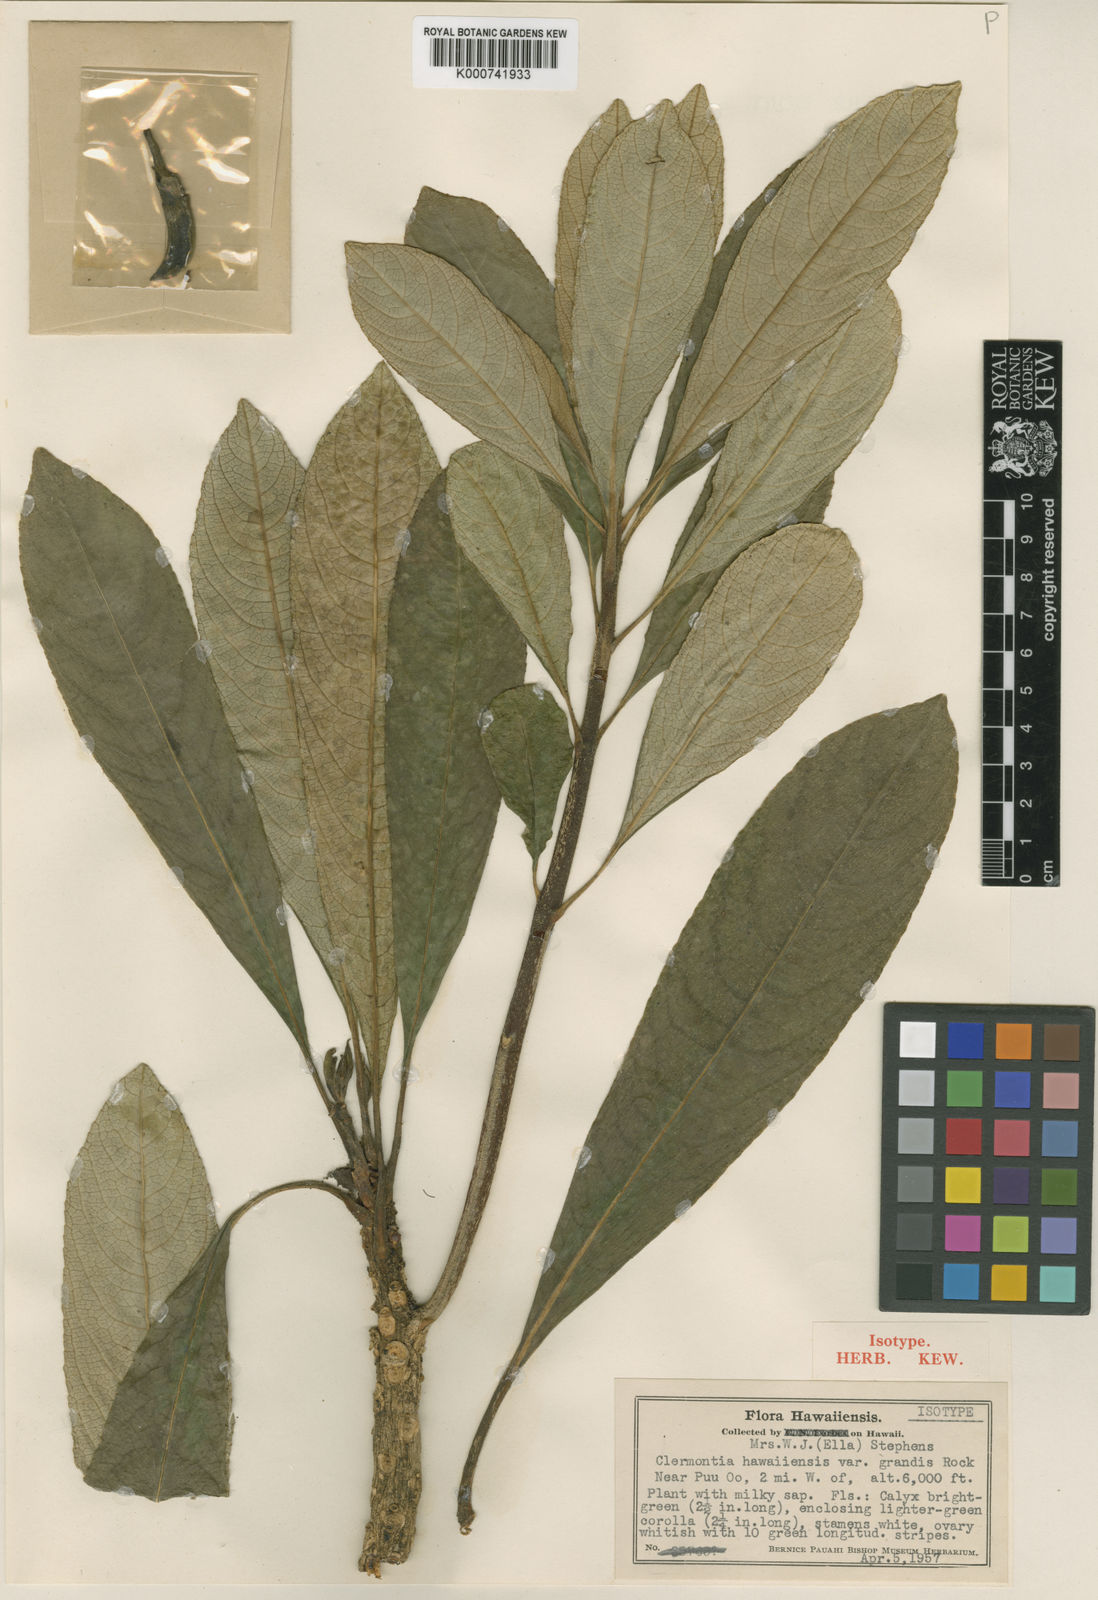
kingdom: Plantae
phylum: Tracheophyta
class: Magnoliopsida
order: Asterales
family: Campanulaceae
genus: Clermontia
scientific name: Clermontia hawaiiensis
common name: Hawaii clermontia
